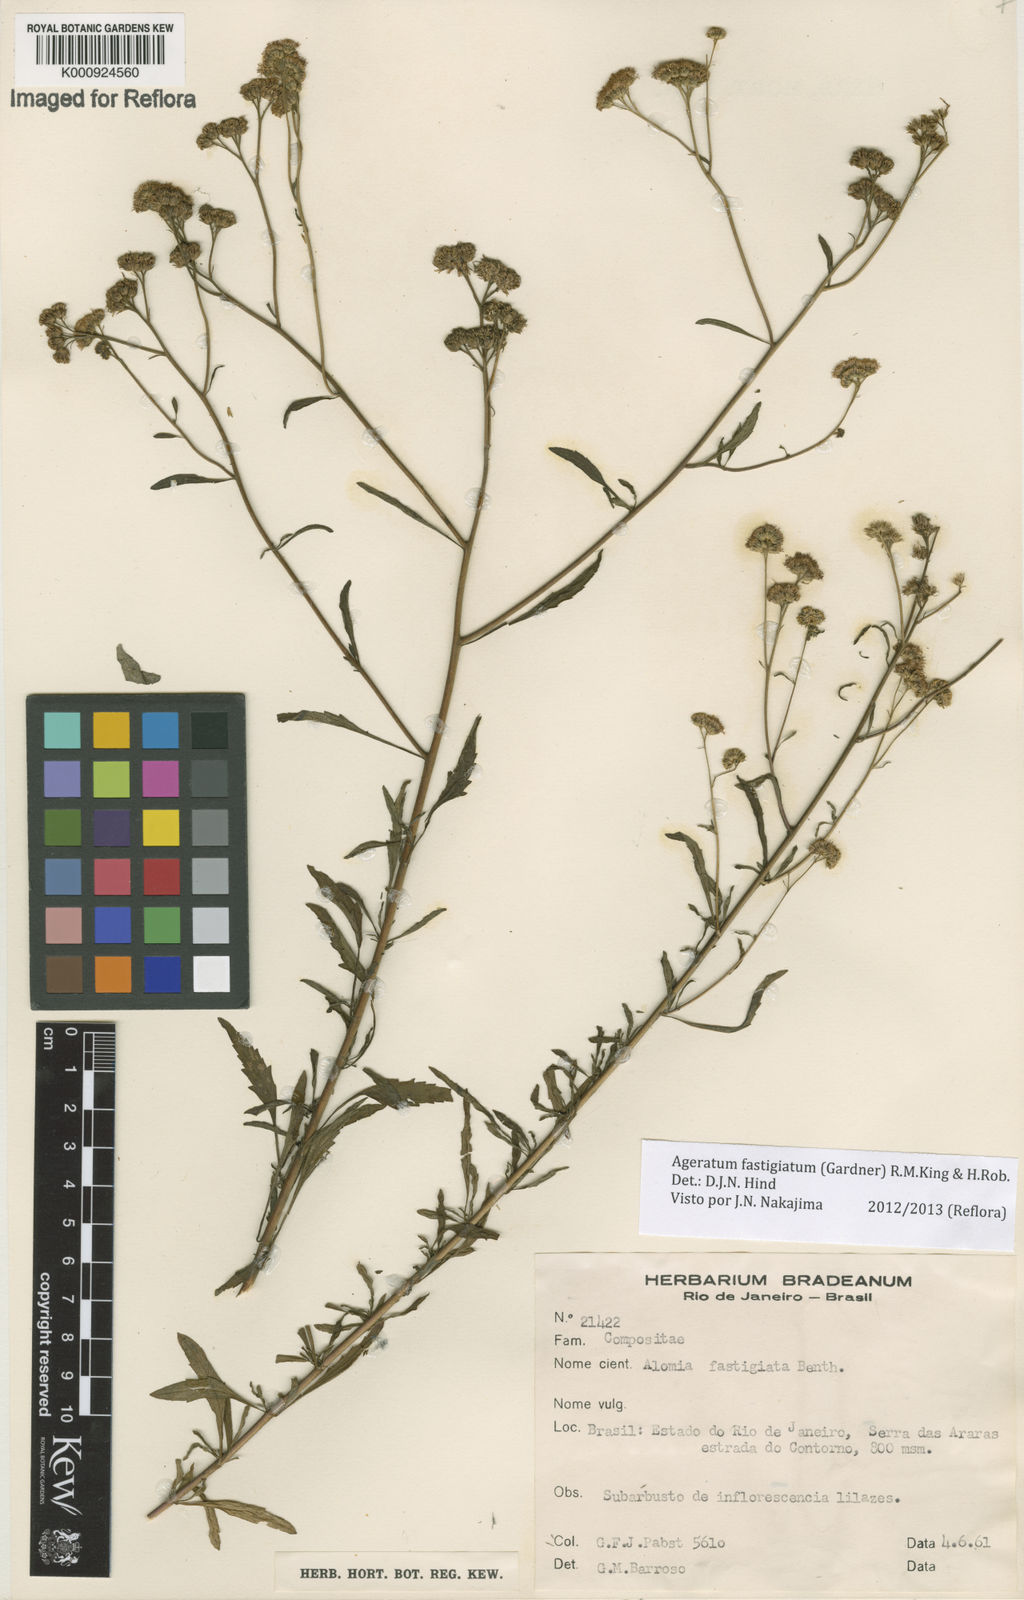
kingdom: Plantae
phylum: Tracheophyta
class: Magnoliopsida
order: Asterales
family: Asteraceae
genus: Ageratum
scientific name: Ageratum fastigiatum
